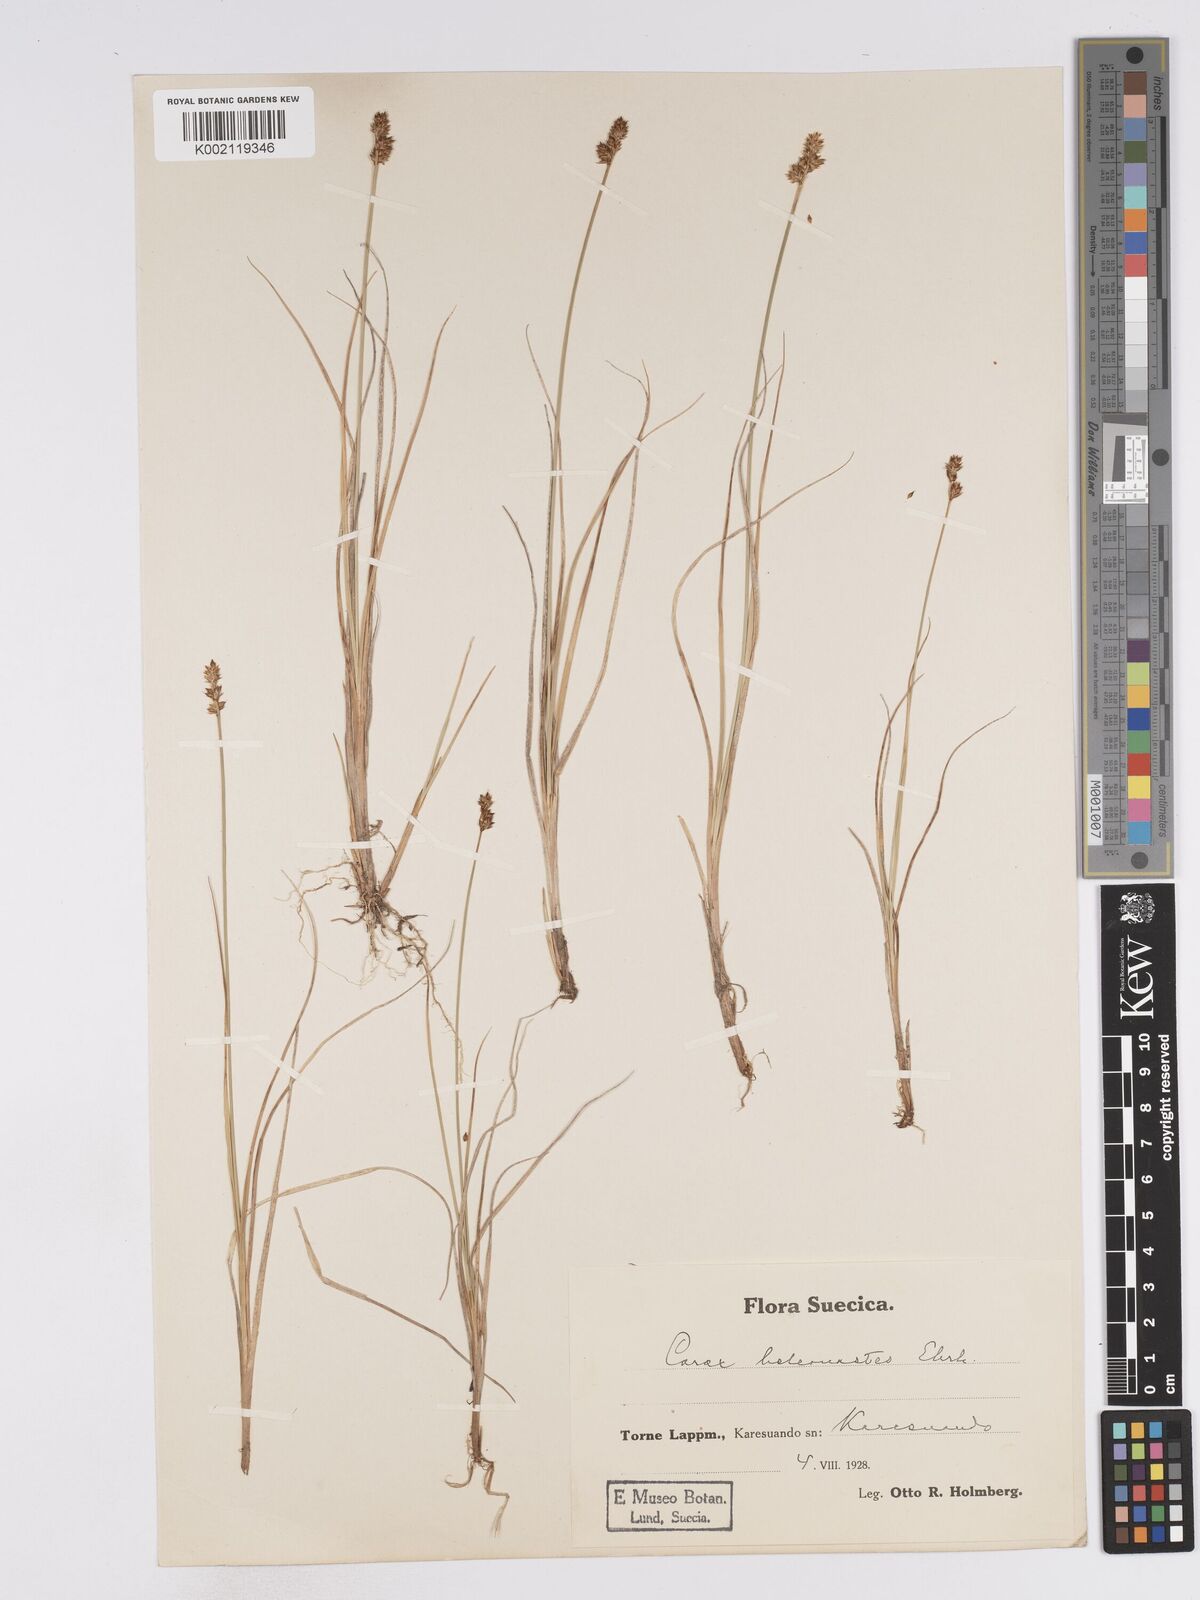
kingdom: Plantae
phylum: Tracheophyta
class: Liliopsida
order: Poales
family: Cyperaceae
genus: Carex
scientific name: Carex heleonastes
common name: Hudson bay sedge
